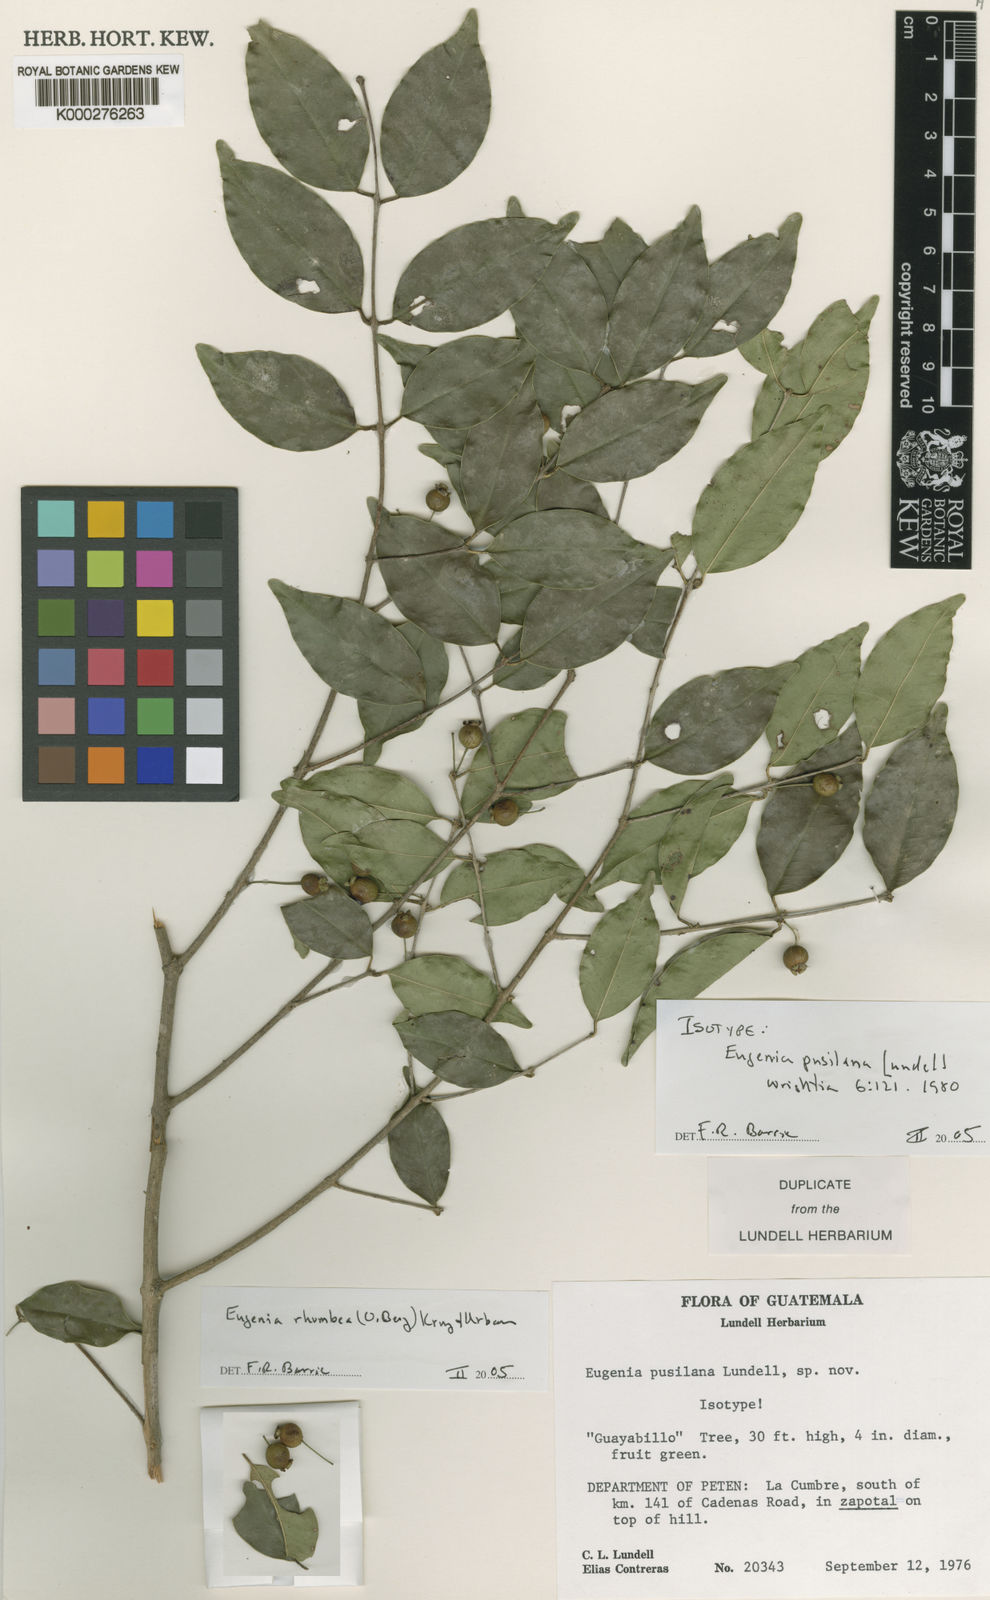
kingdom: Plantae
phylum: Tracheophyta
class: Magnoliopsida
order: Myrtales
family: Myrtaceae
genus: Eugenia
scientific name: Eugenia rhombea
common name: Pigeon berry
